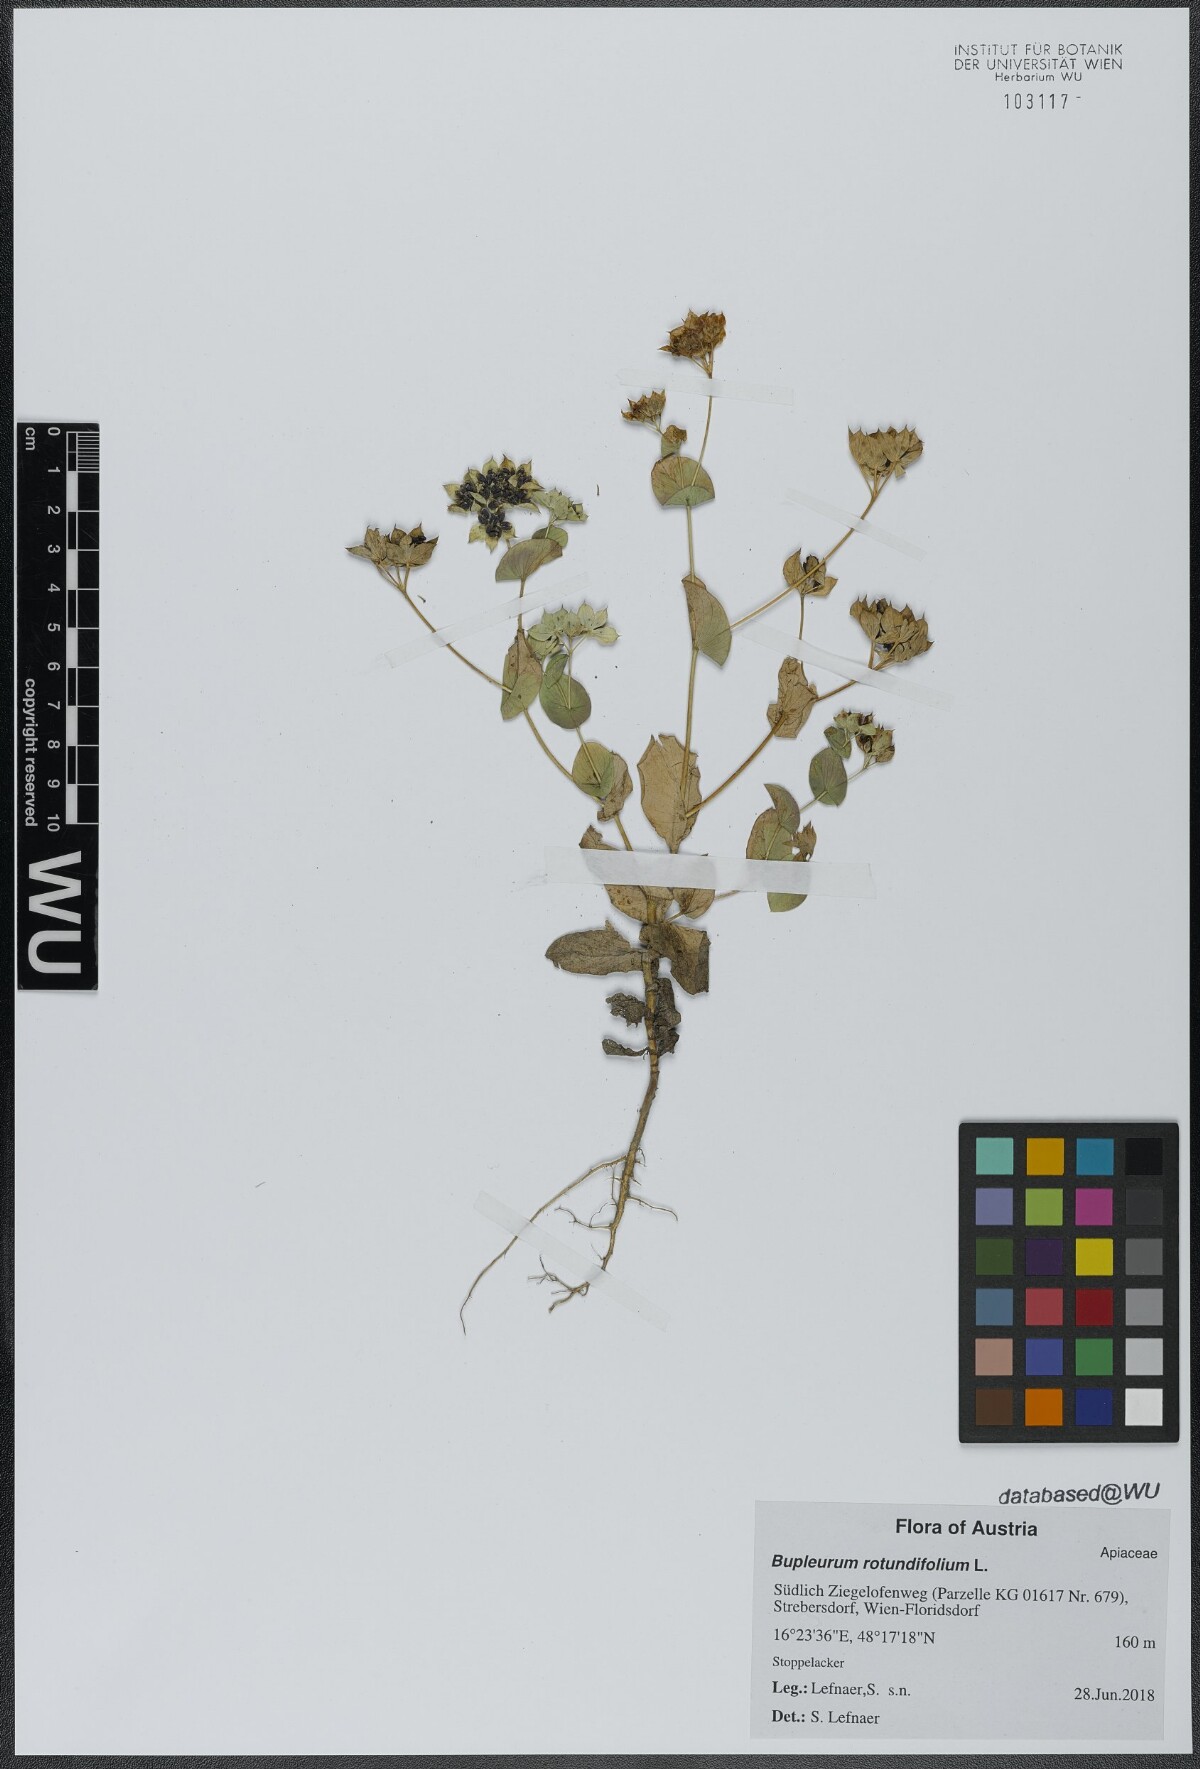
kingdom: Plantae
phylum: Tracheophyta
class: Magnoliopsida
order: Apiales
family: Apiaceae
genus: Bupleurum
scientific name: Bupleurum rotundifolium
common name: Thorow-wax
